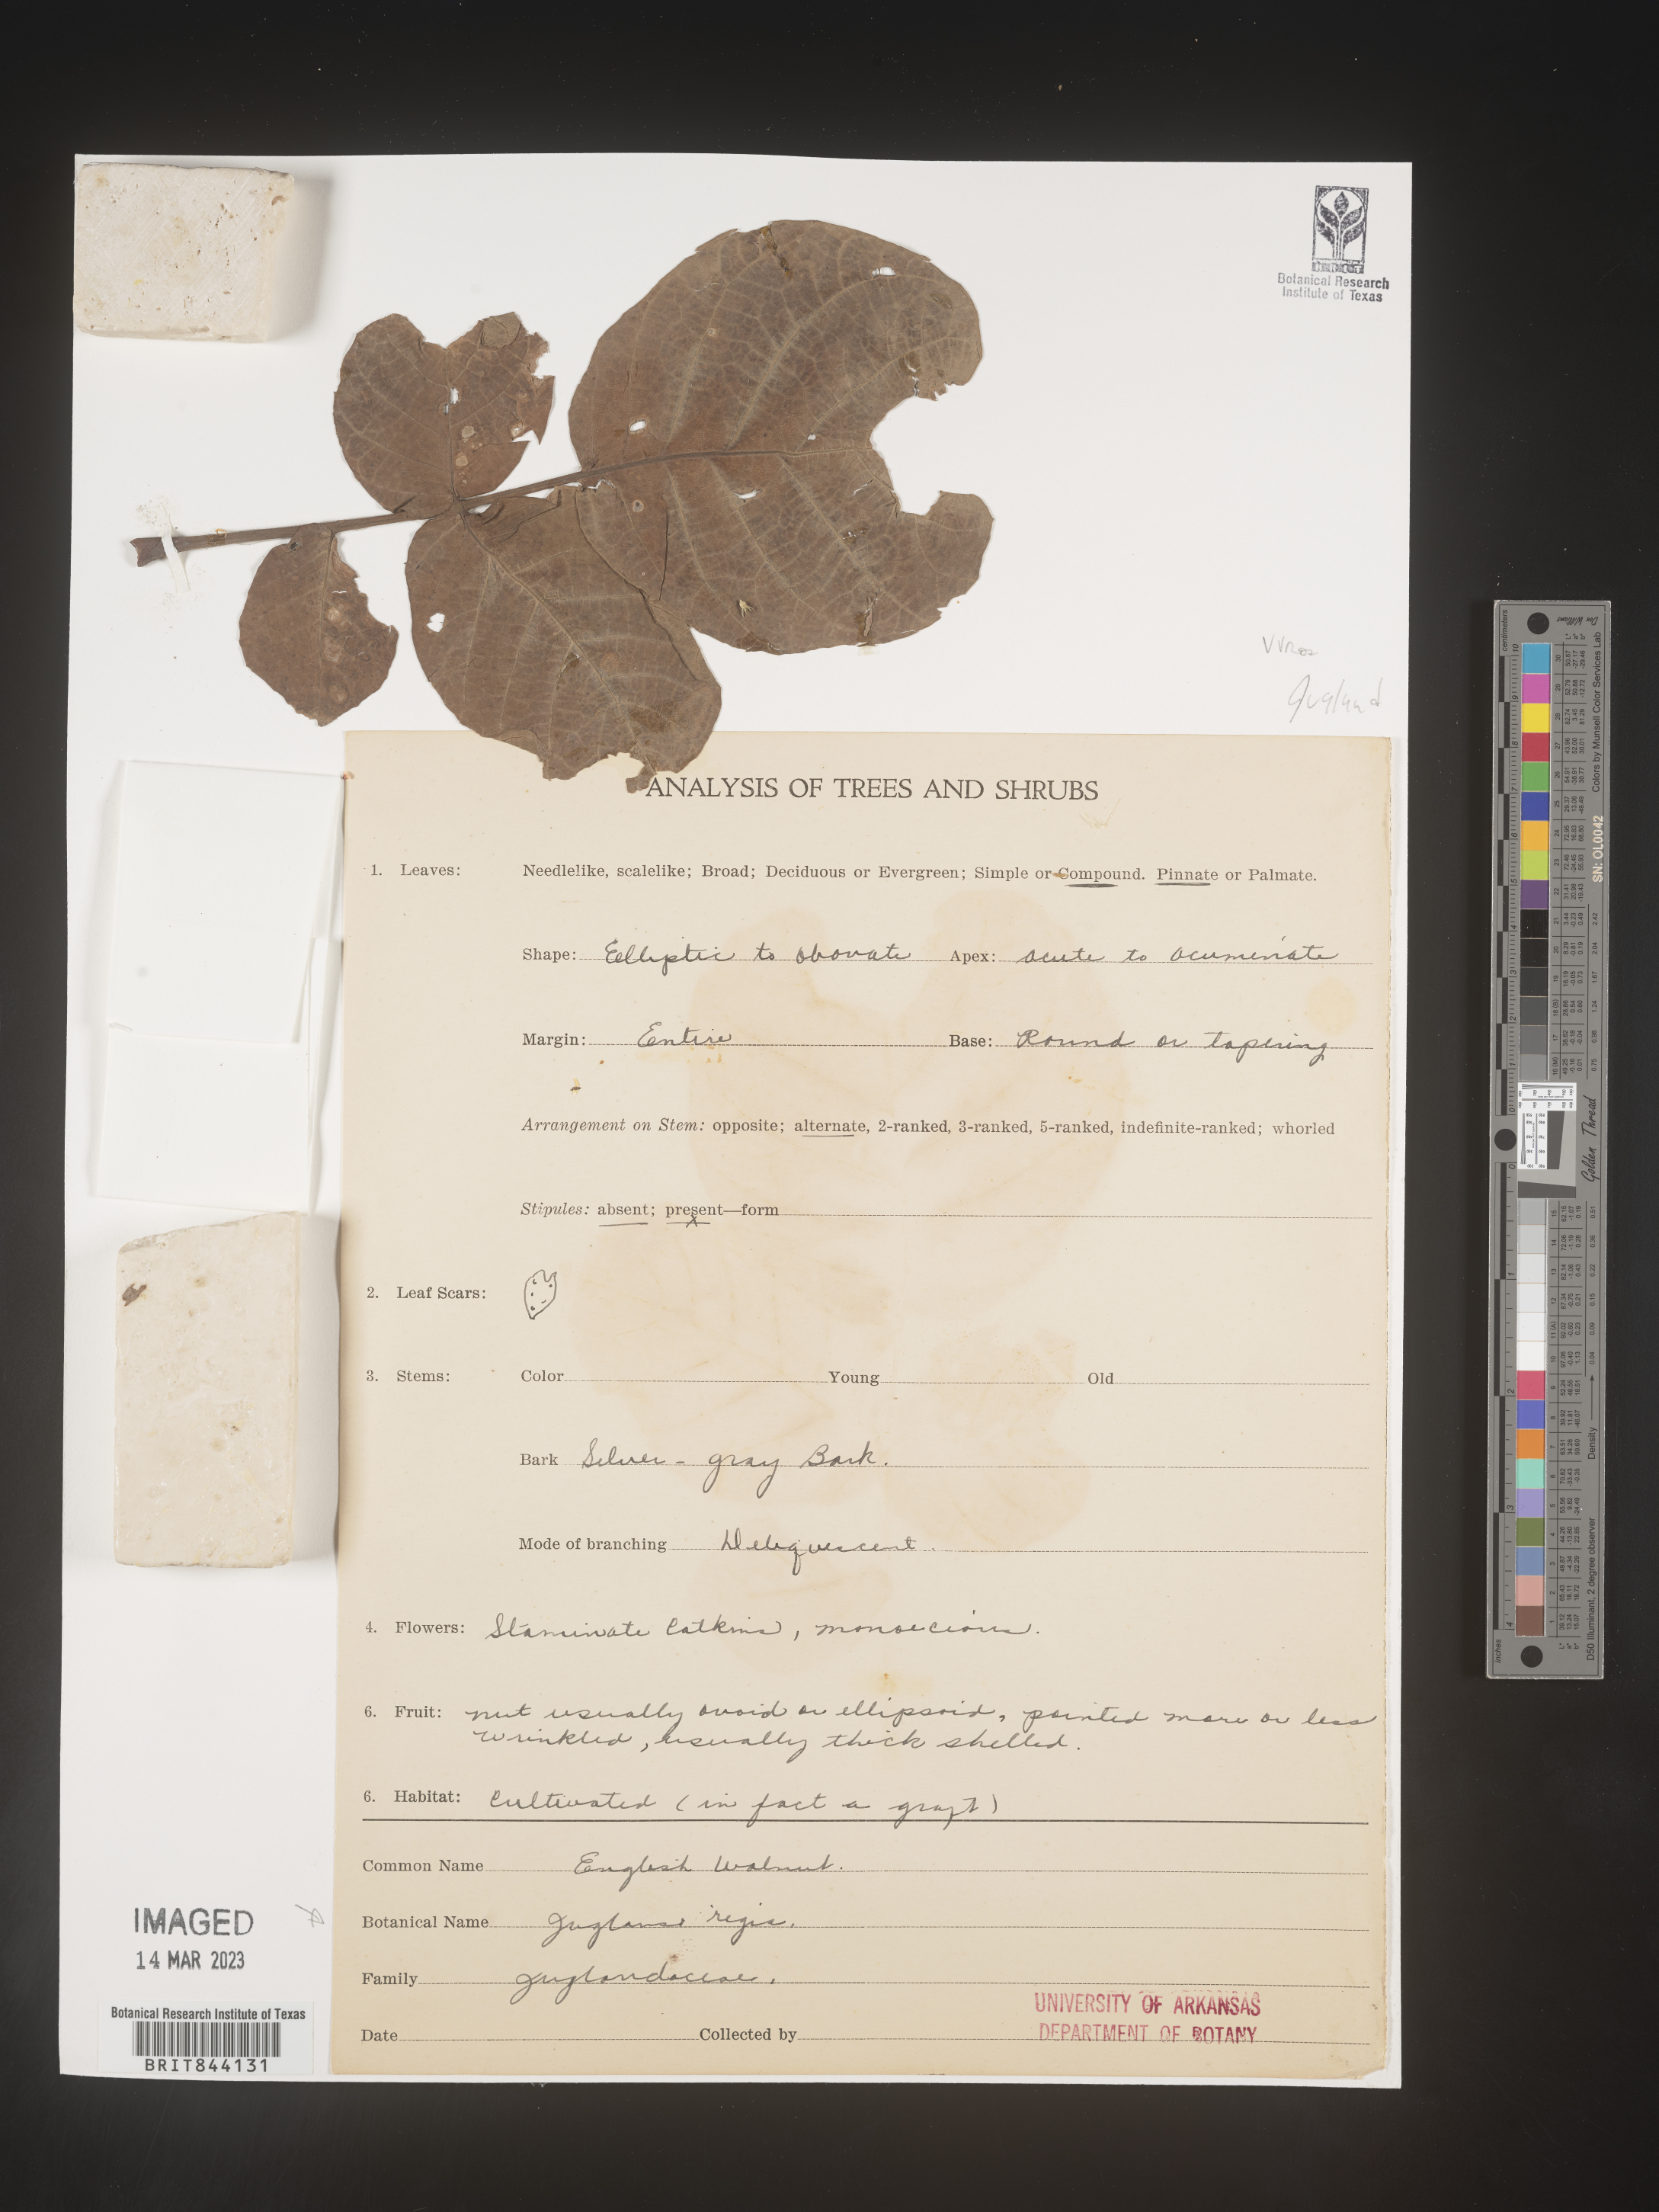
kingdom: Plantae
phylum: Tracheophyta
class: Magnoliopsida
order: Fagales
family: Juglandaceae
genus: Juglans
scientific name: Juglans
